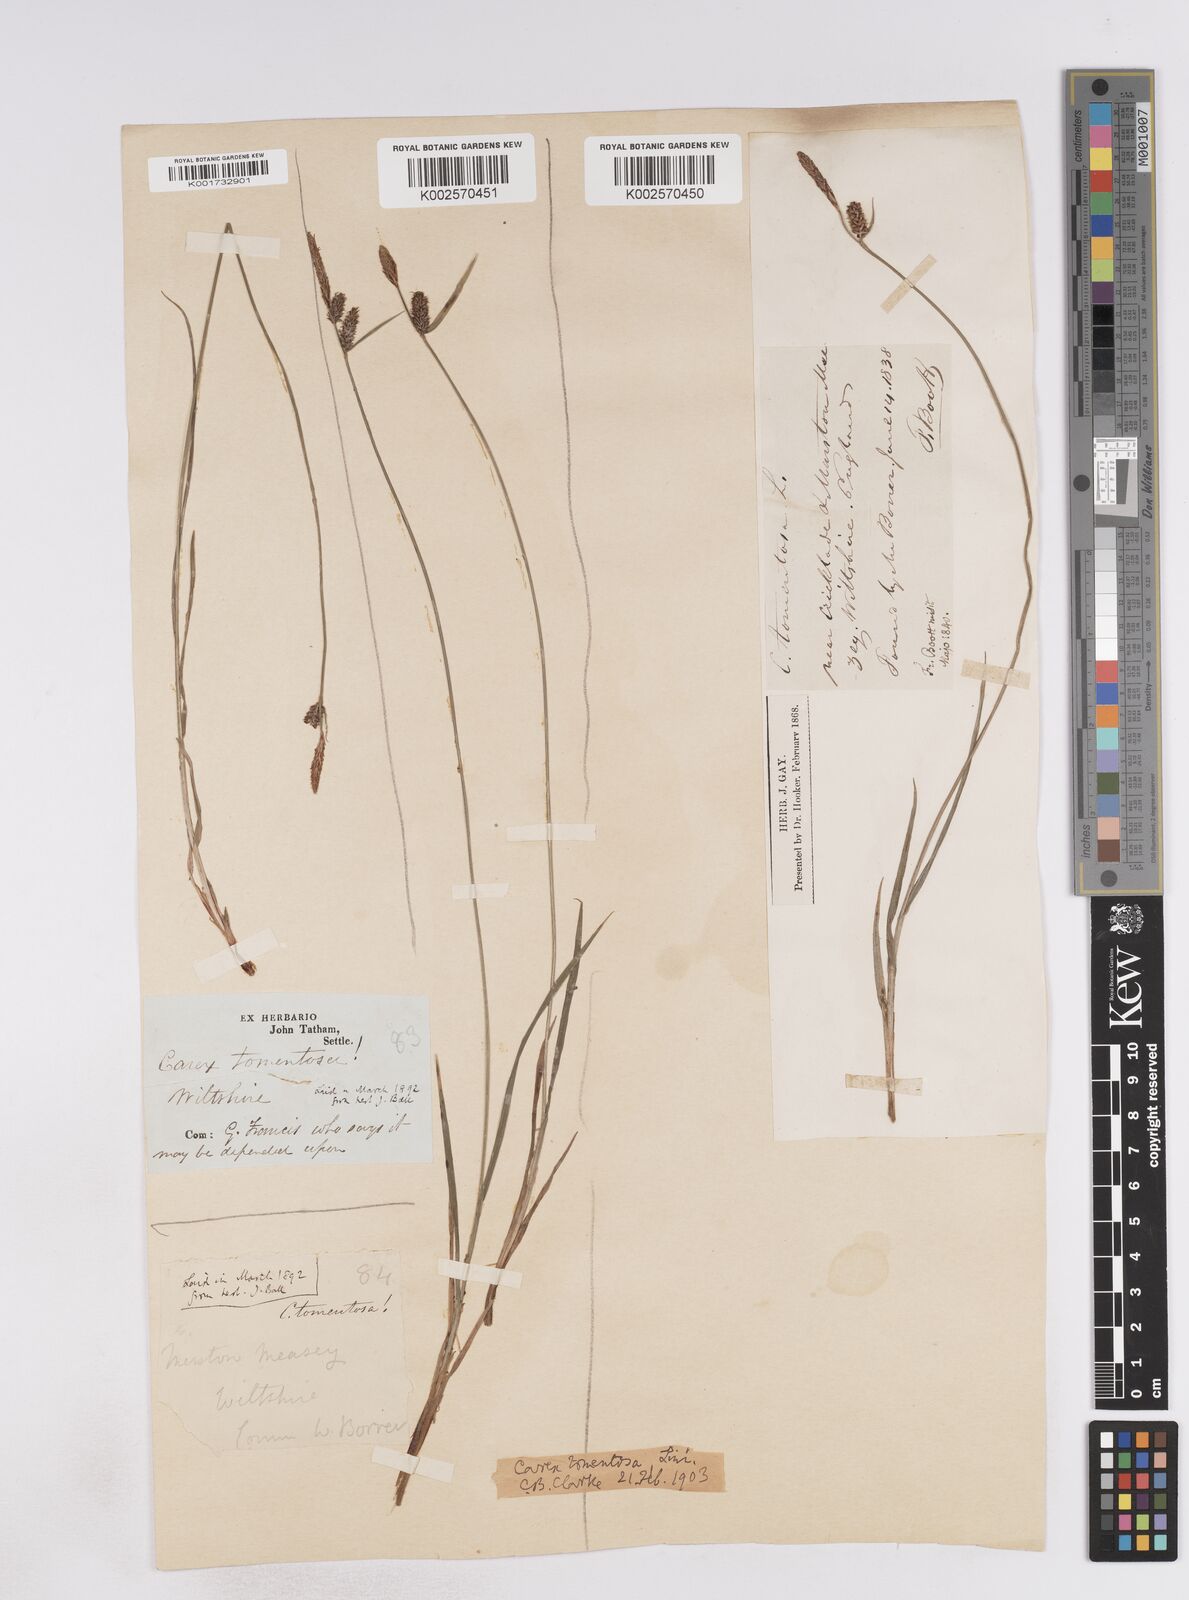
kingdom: Plantae
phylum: Tracheophyta
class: Liliopsida
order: Poales
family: Cyperaceae
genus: Carex
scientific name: Carex montana
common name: Soft-leaved sedge
